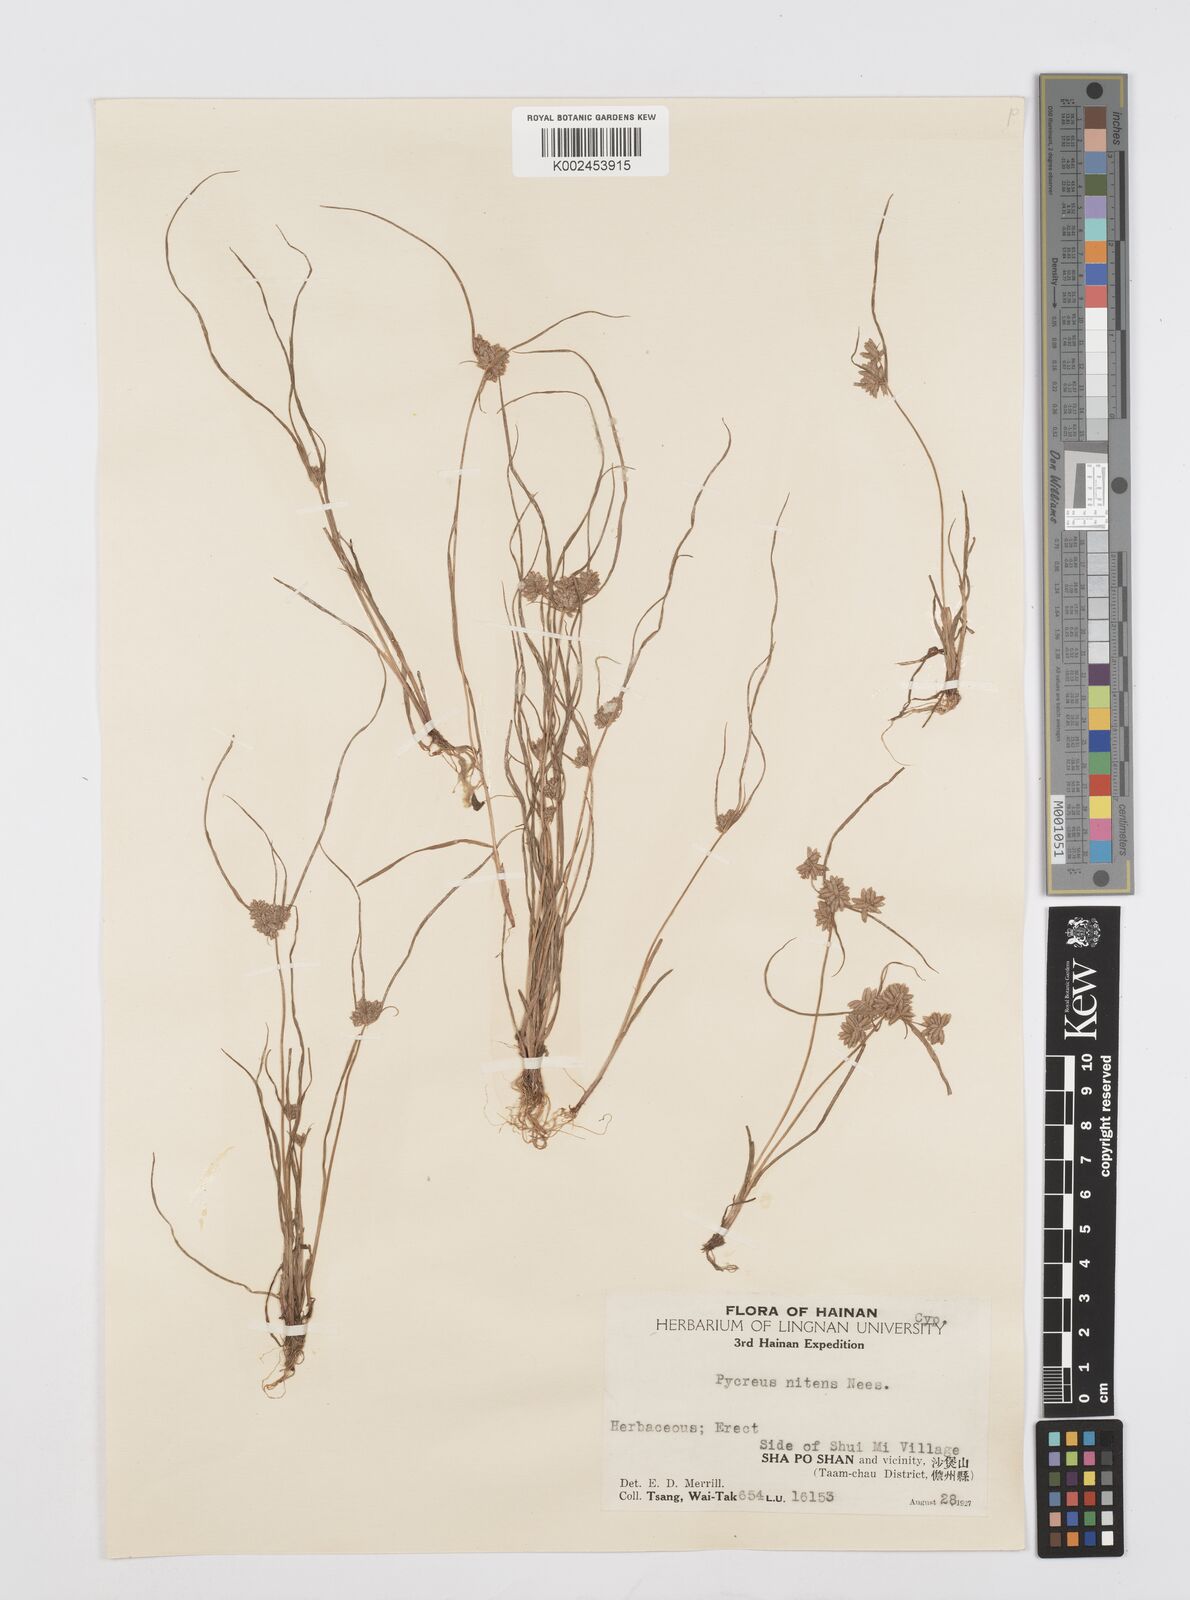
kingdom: Plantae
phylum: Tracheophyta
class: Liliopsida
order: Poales
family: Cyperaceae
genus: Cyperus
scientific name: Cyperus pumilus
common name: Low flatsedge
